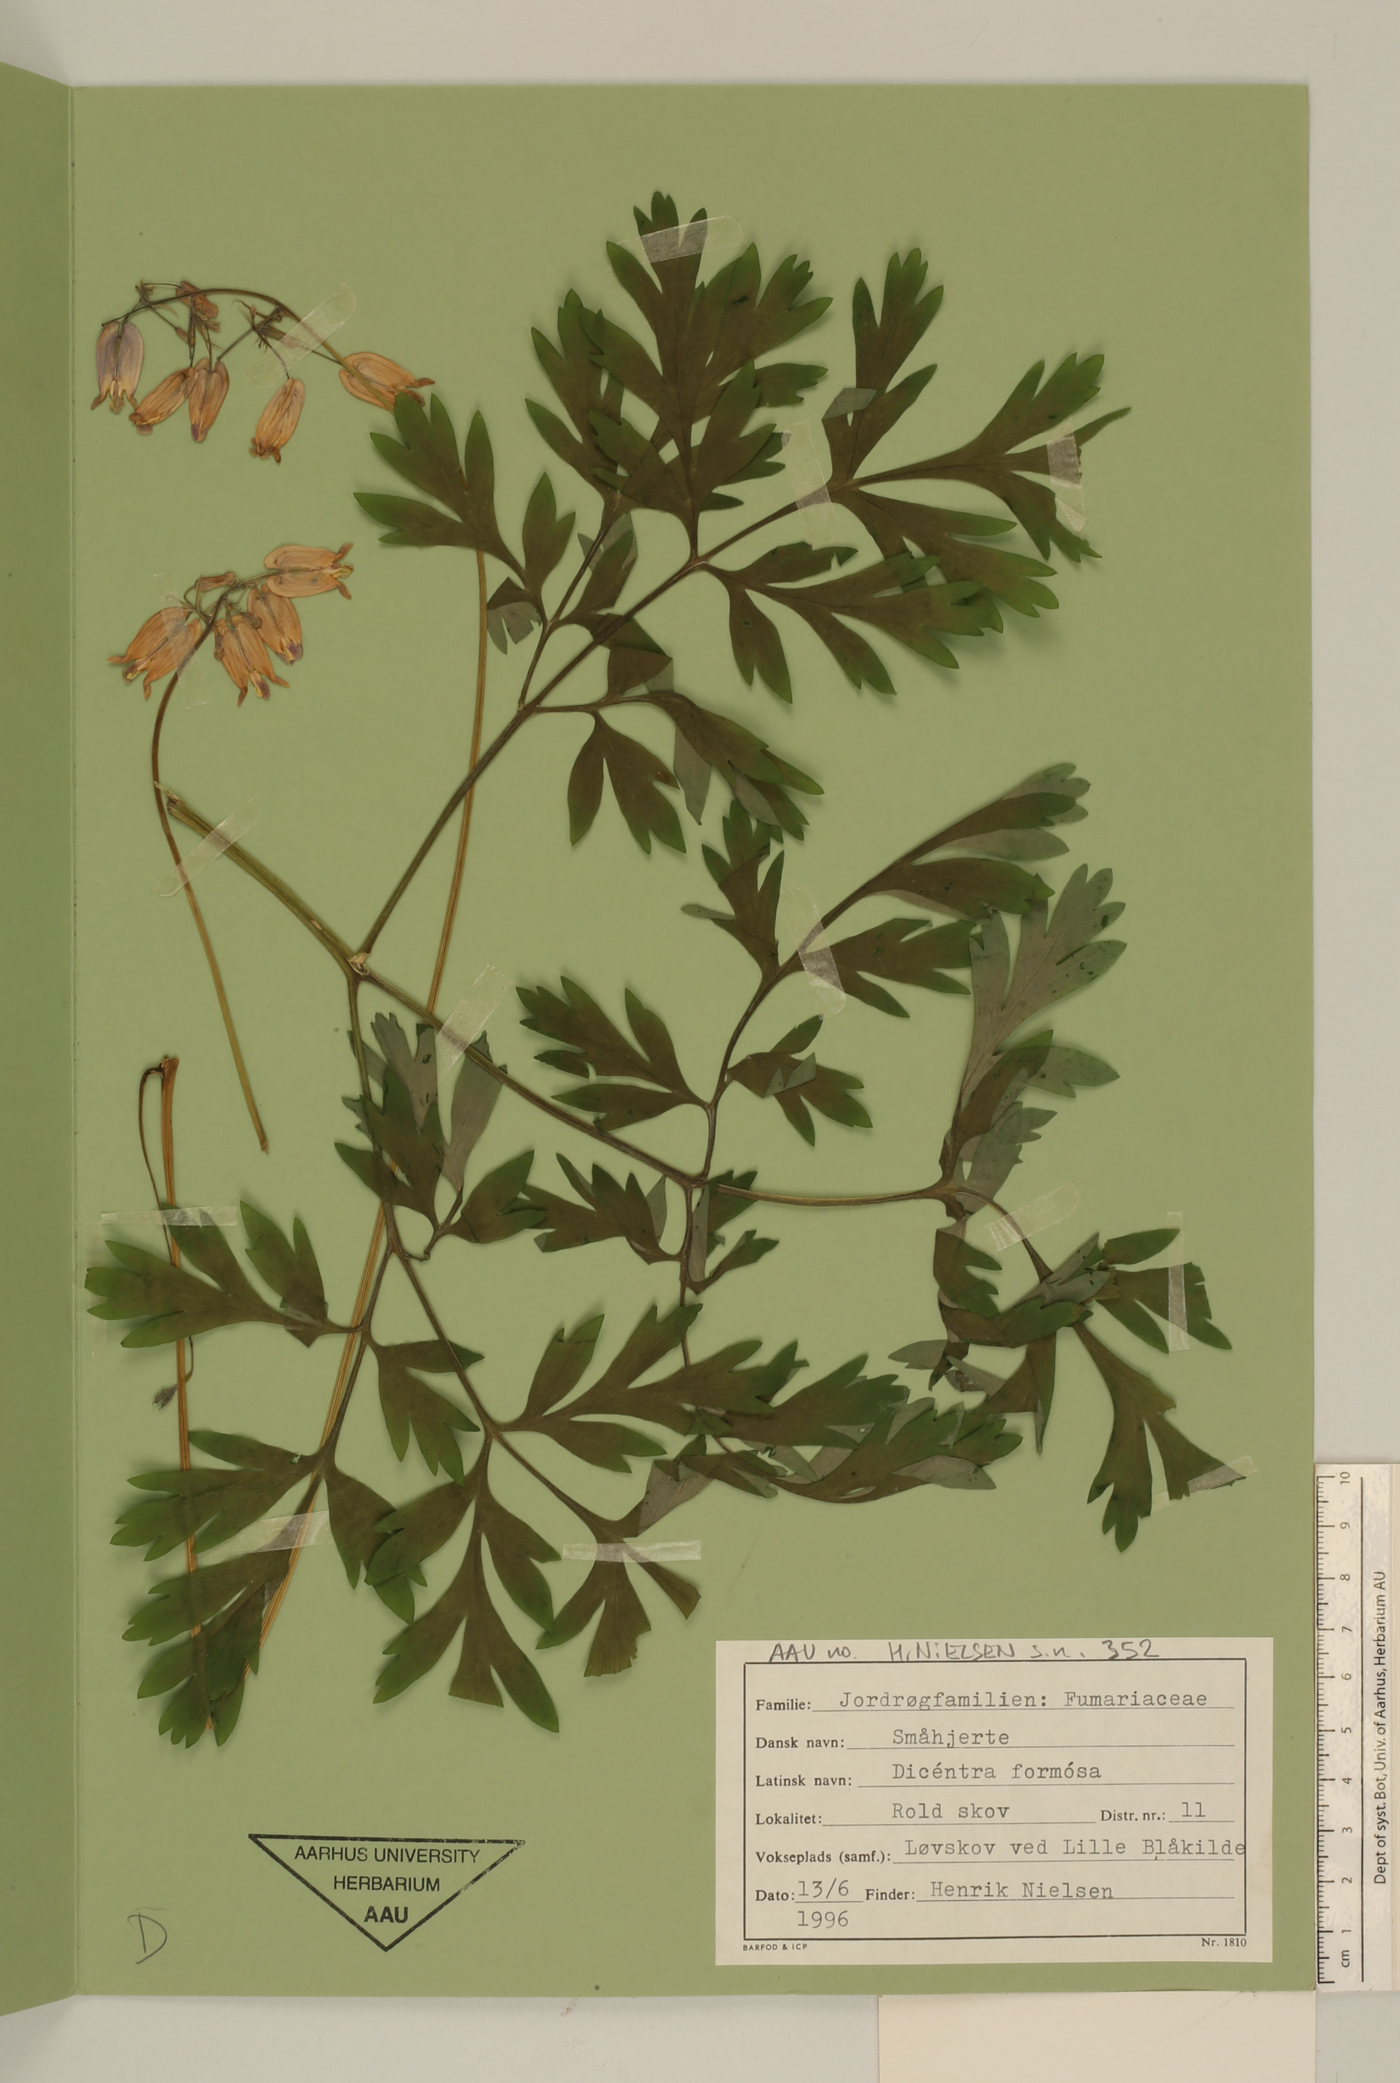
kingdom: Plantae
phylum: Tracheophyta
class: Magnoliopsida
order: Ranunculales
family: Papaveraceae
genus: Dicentra
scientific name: Dicentra formosa
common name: Bleeding-heart
